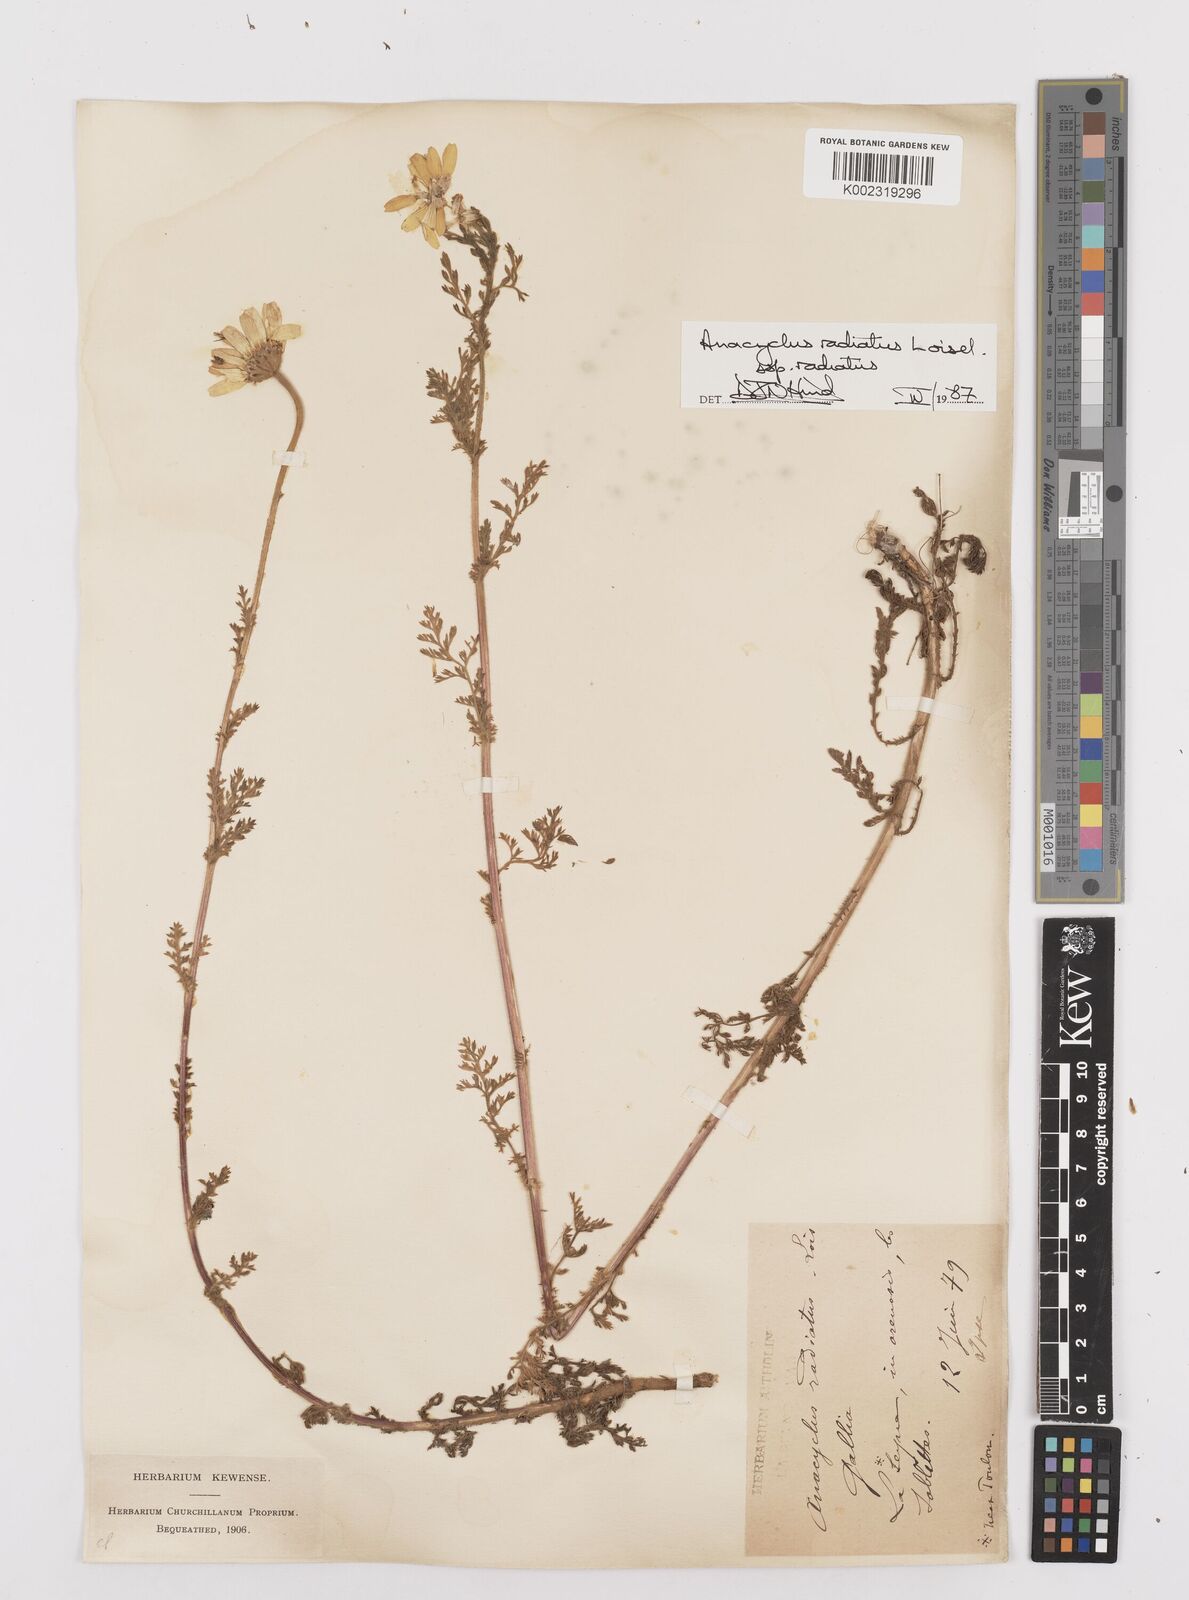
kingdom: Plantae
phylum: Tracheophyta
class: Magnoliopsida
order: Asterales
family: Asteraceae
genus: Anacyclus
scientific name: Anacyclus radiatus
